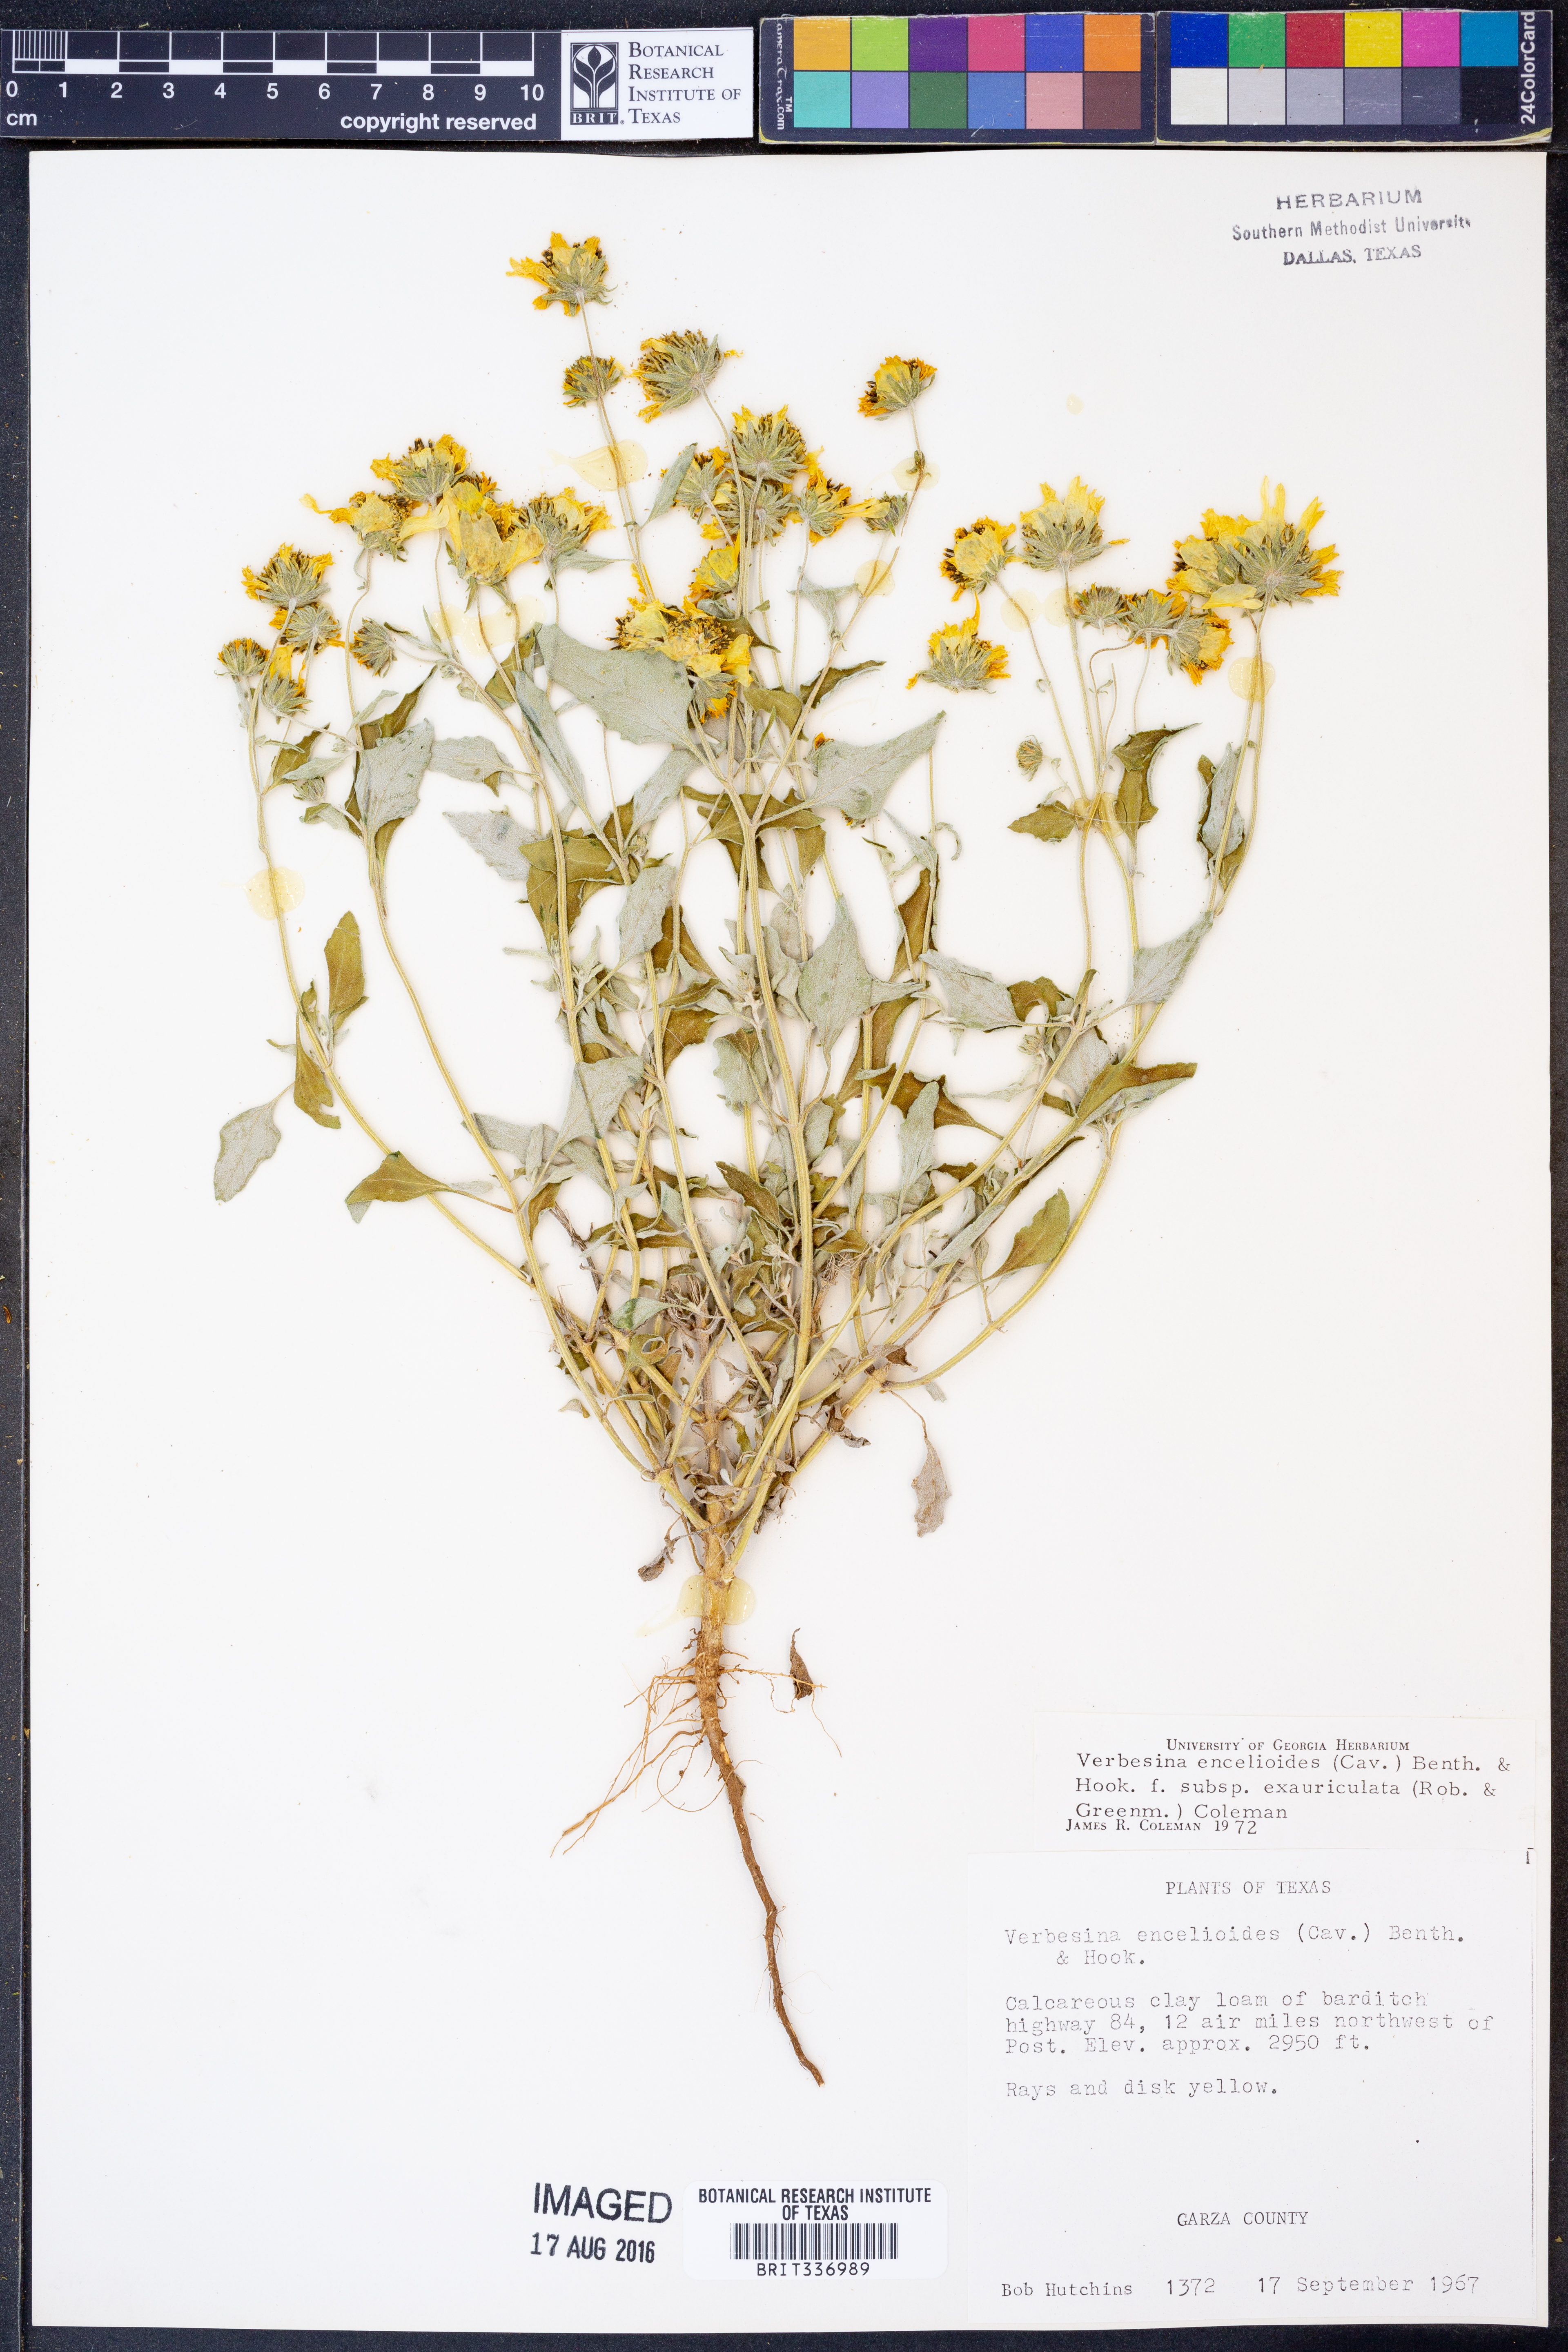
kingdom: Plantae
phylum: Tracheophyta
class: Magnoliopsida
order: Asterales
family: Asteraceae
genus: Verbesina
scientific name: Verbesina encelioides
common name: Golden crownbeard
